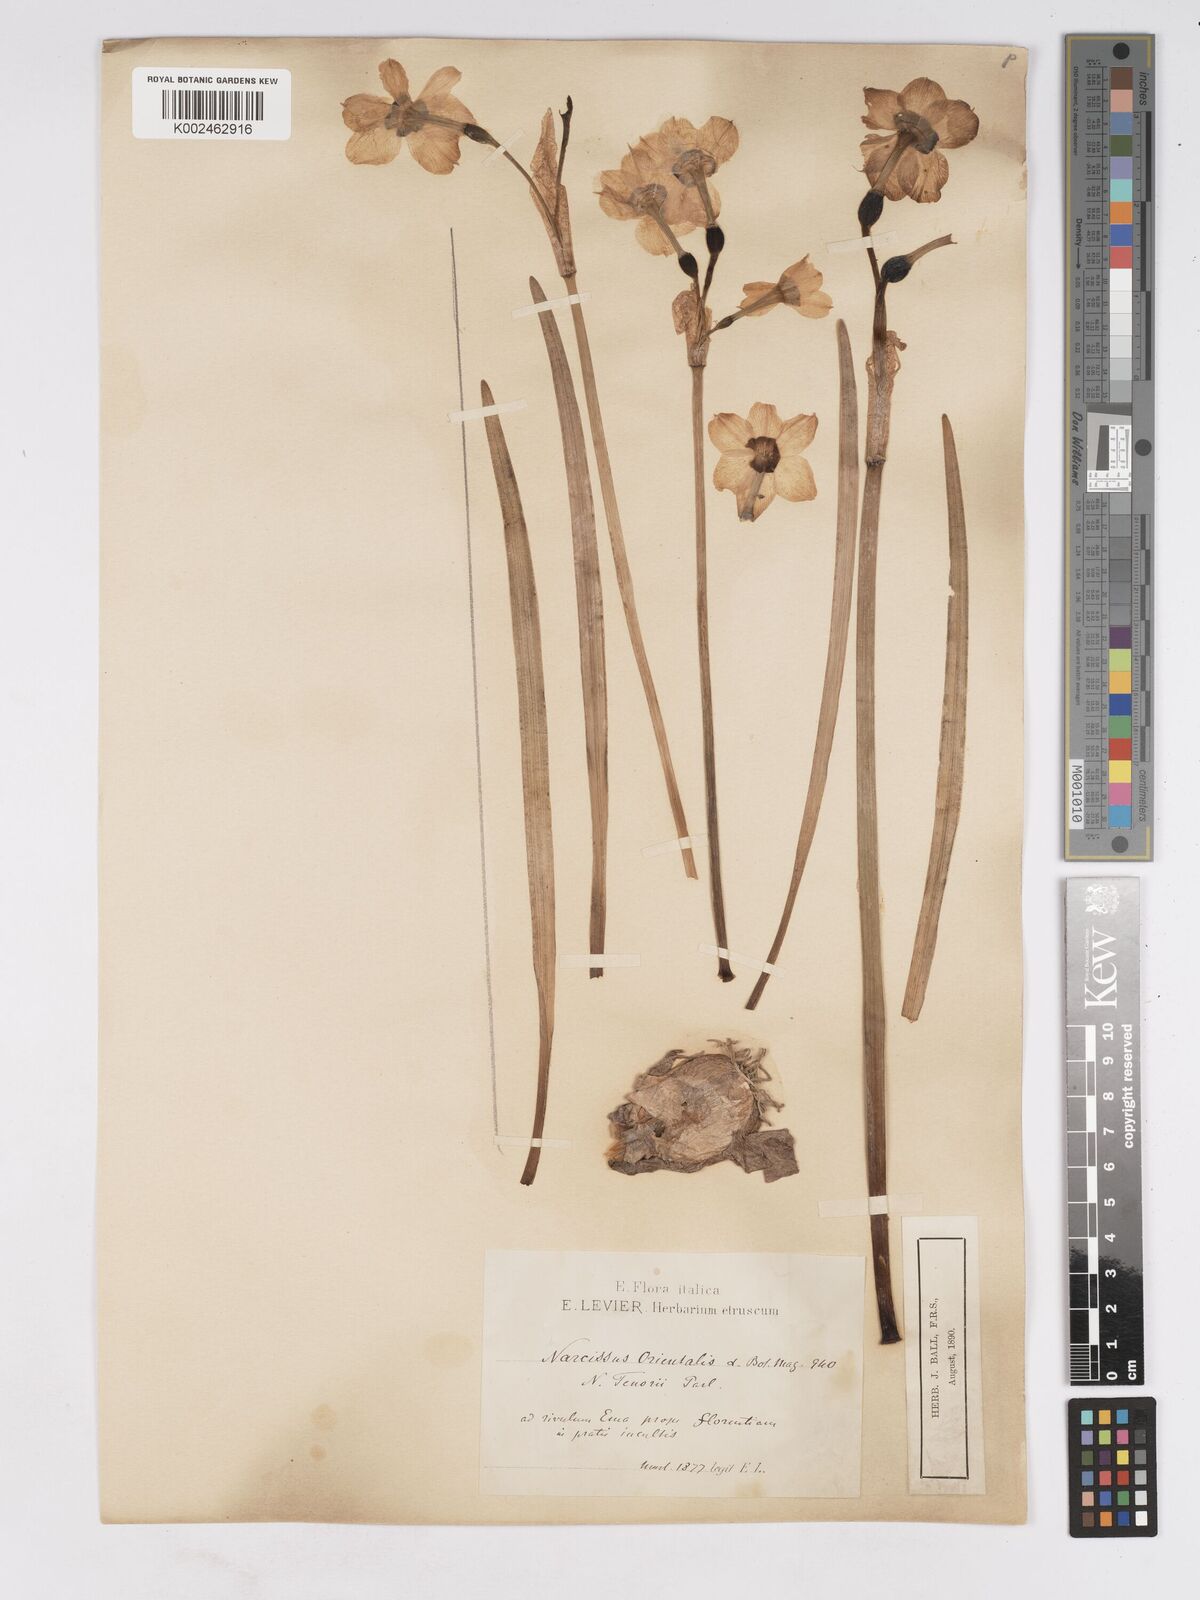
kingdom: Plantae
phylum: Tracheophyta
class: Liliopsida
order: Asparagales
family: Amaryllidaceae
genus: Narcissus
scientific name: Narcissus tazetta
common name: Bunch-flowered daffodil
